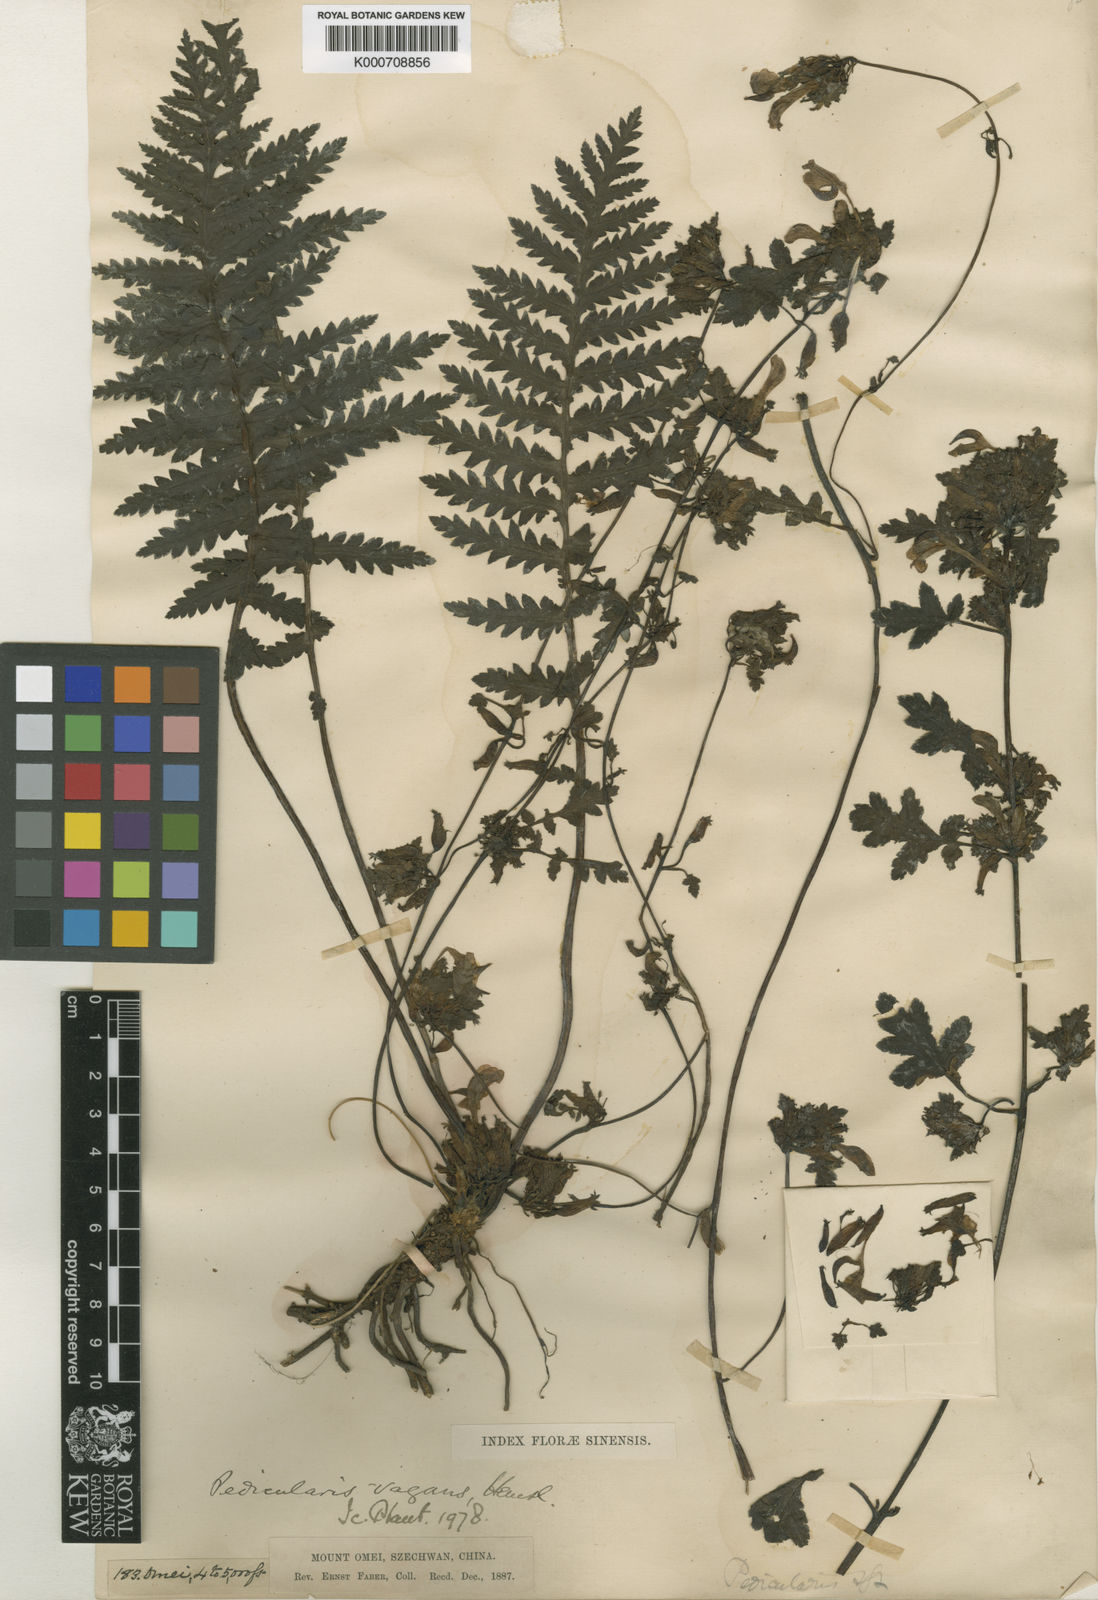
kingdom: Plantae
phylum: Tracheophyta
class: Magnoliopsida
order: Lamiales
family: Orobanchaceae
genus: Pedicularis
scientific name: Pedicularis vagans
